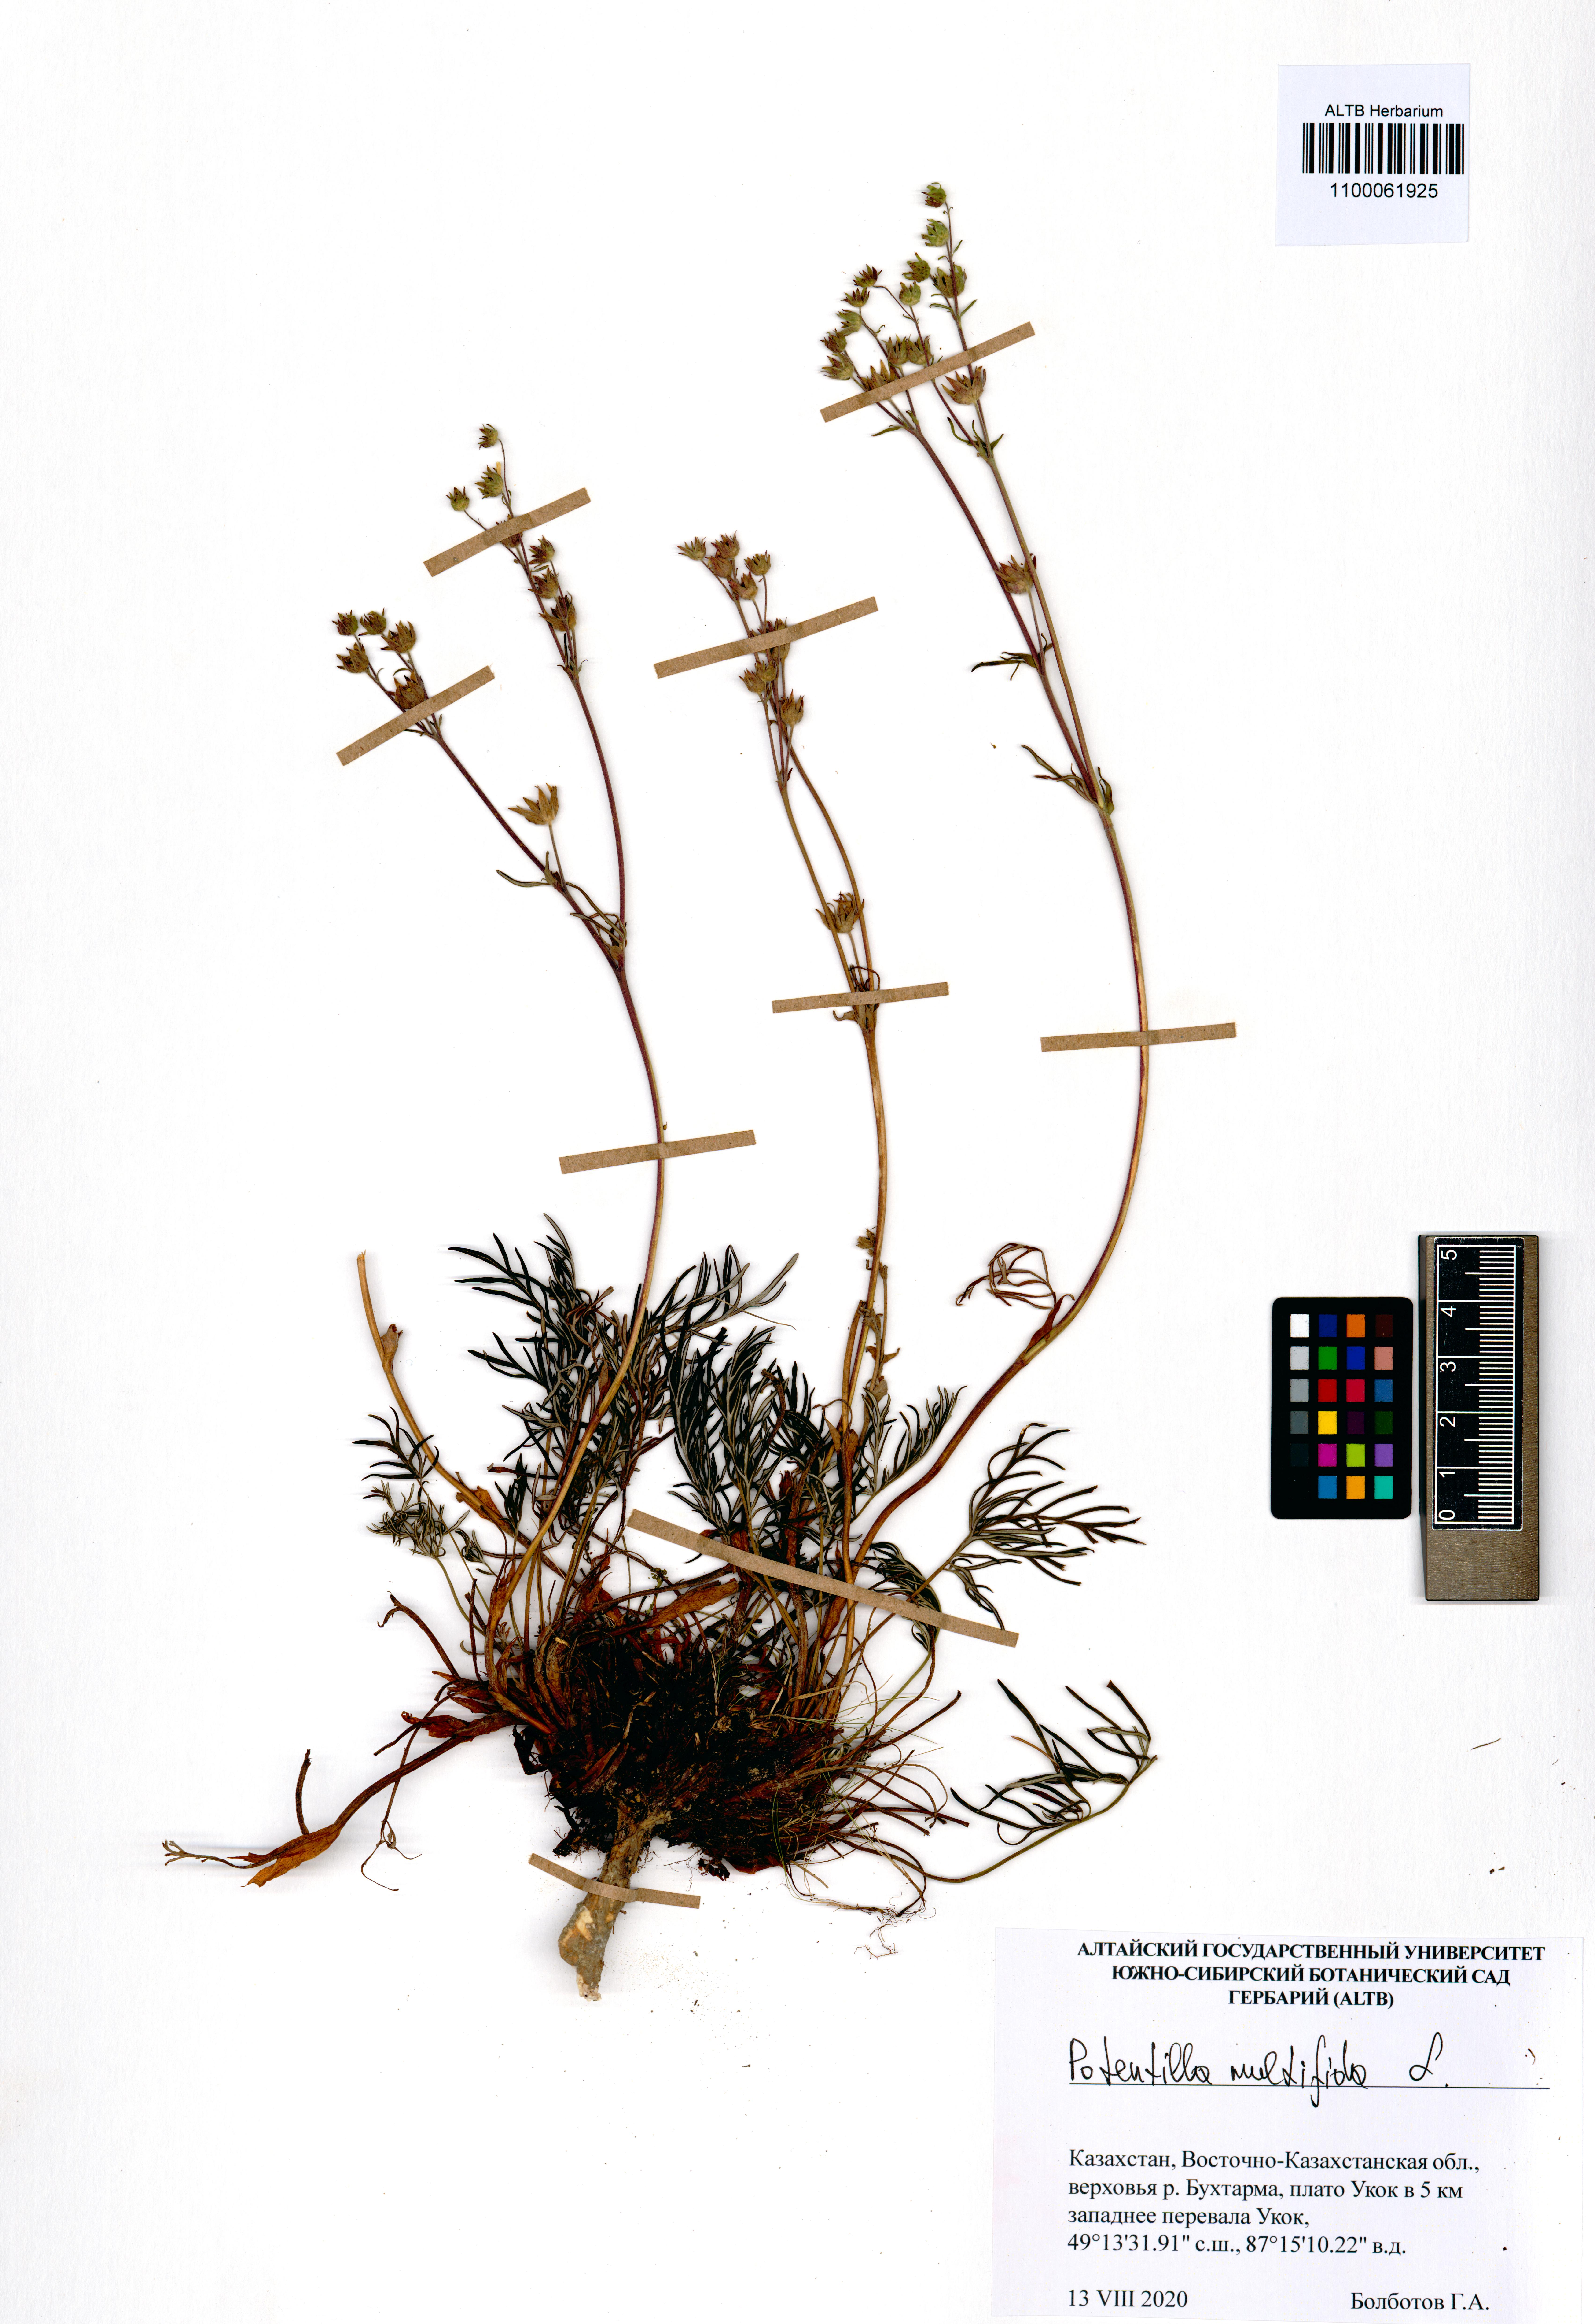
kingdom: Plantae
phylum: Tracheophyta
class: Magnoliopsida
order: Rosales
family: Rosaceae
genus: Potentilla
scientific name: Potentilla multifida
